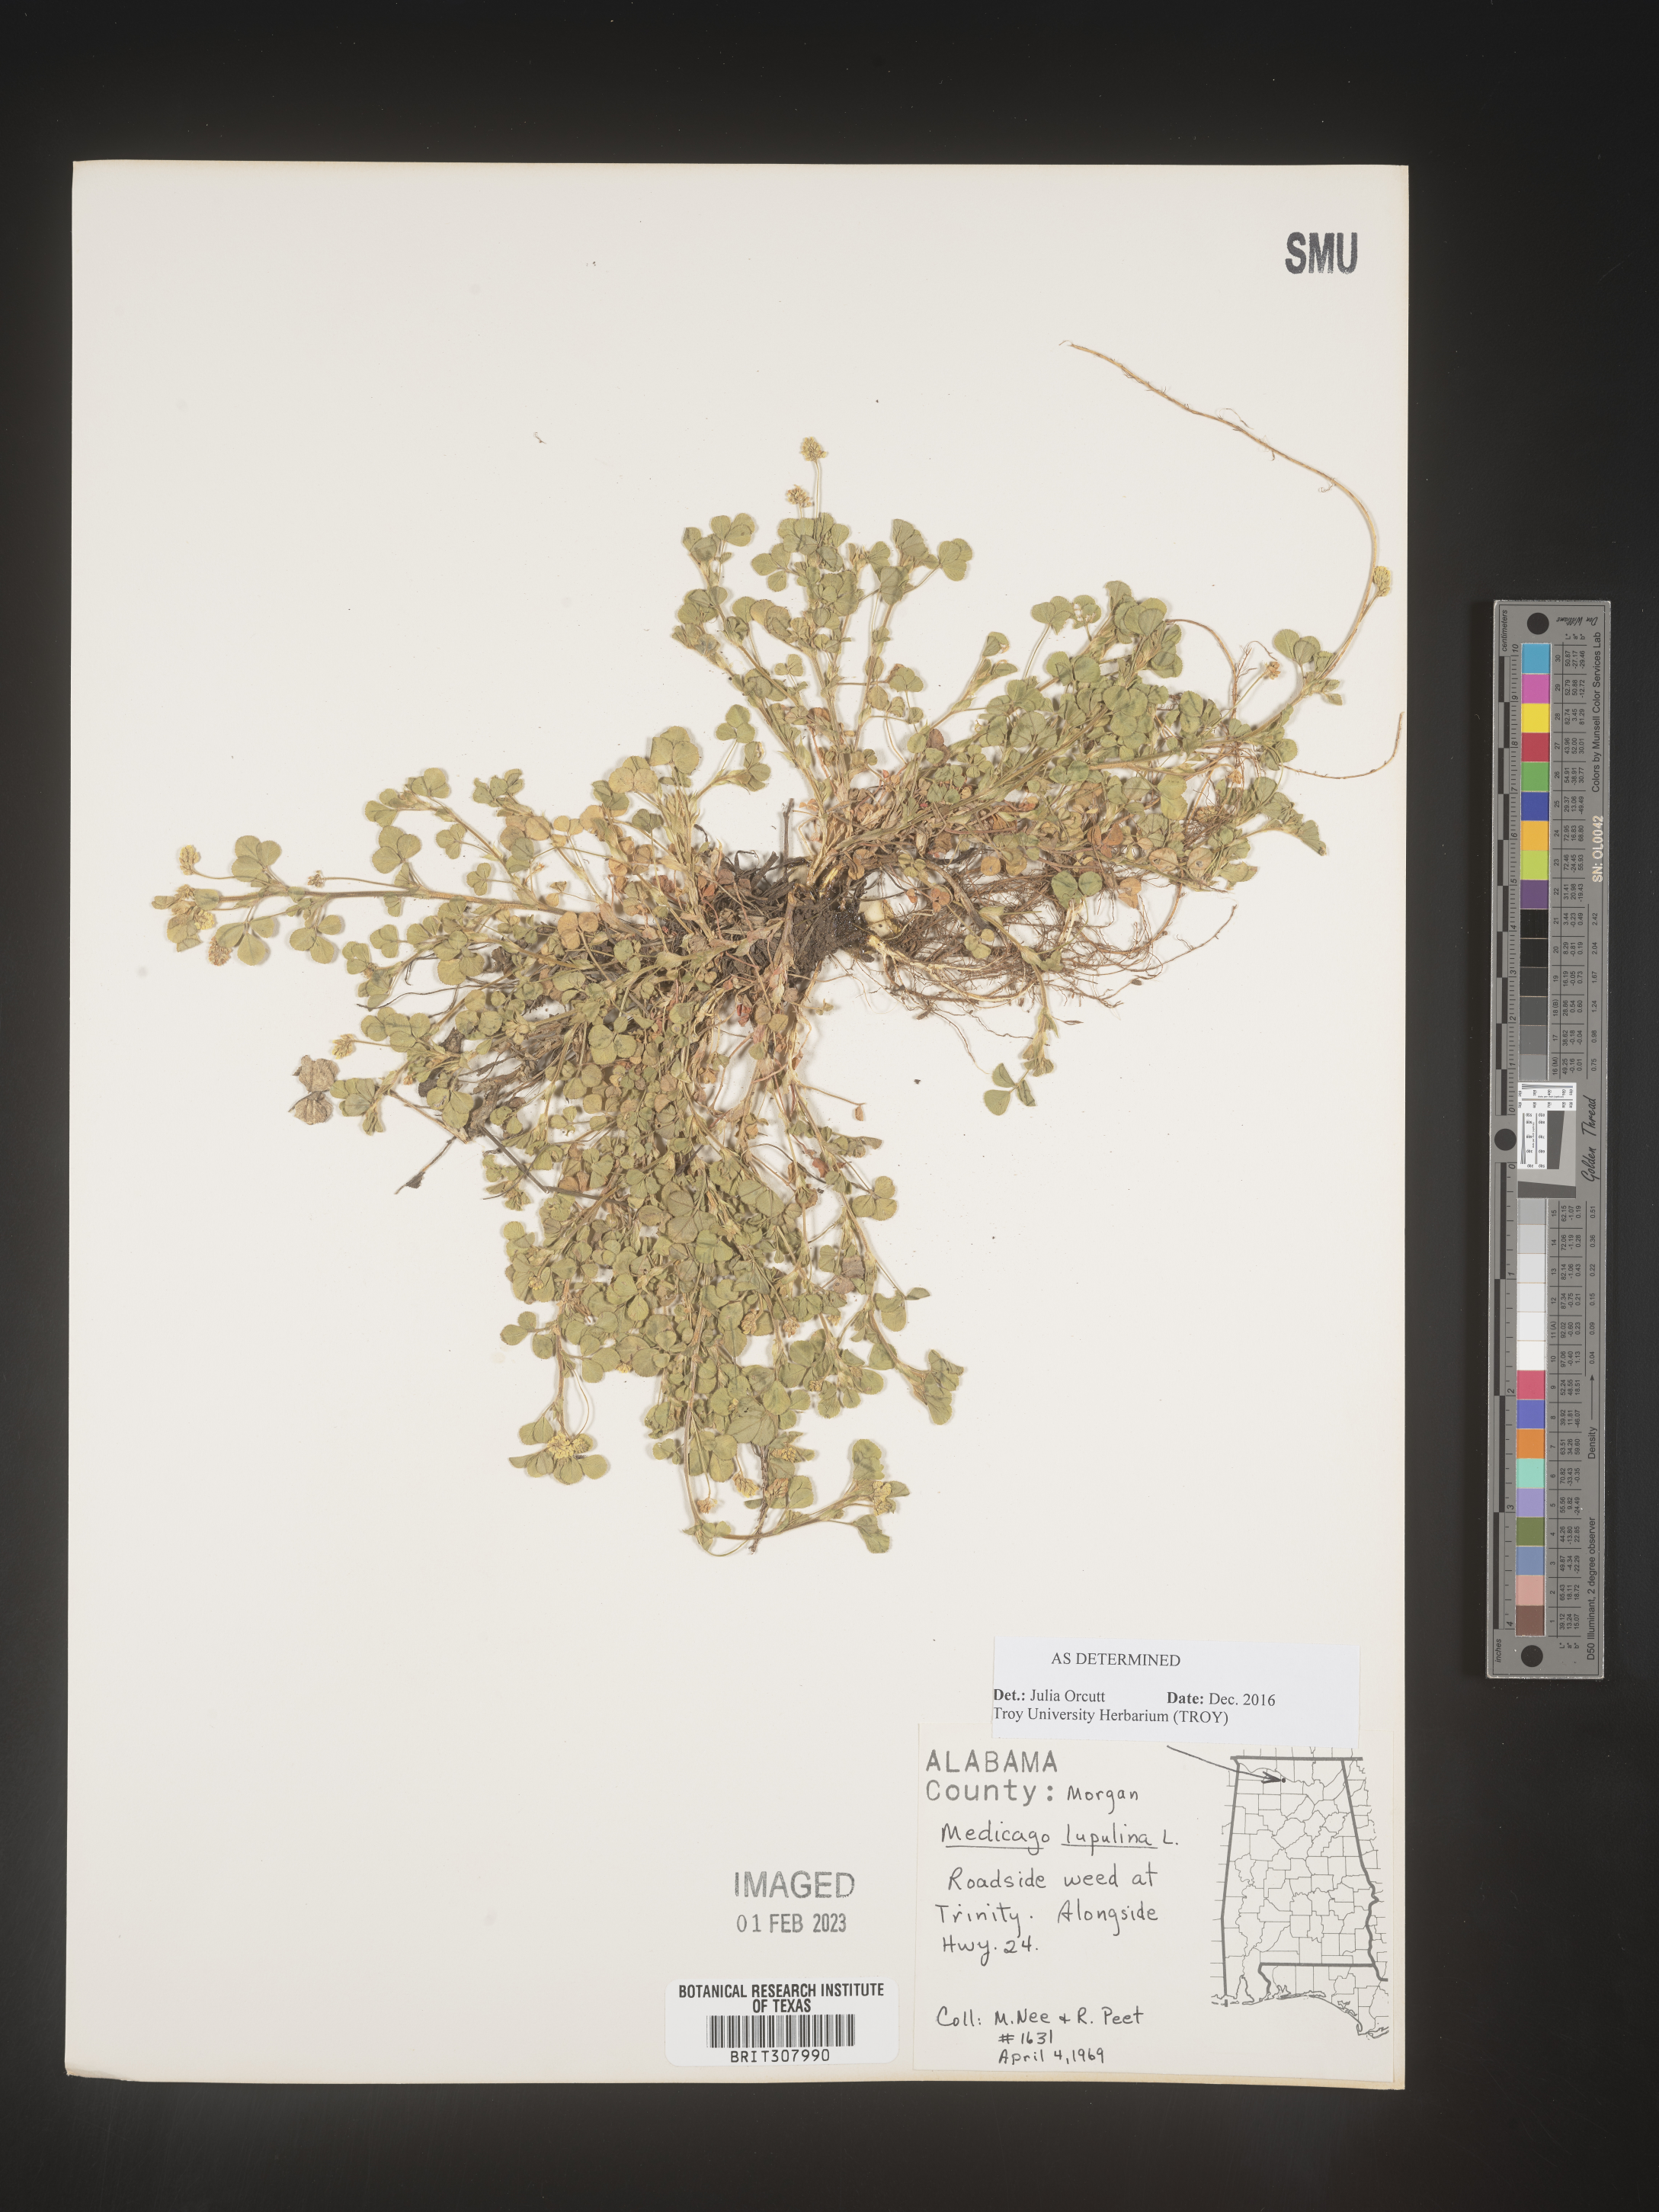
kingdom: Plantae
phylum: Tracheophyta
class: Magnoliopsida
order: Fabales
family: Fabaceae
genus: Medicago
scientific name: Medicago lupulina
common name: Black medick
